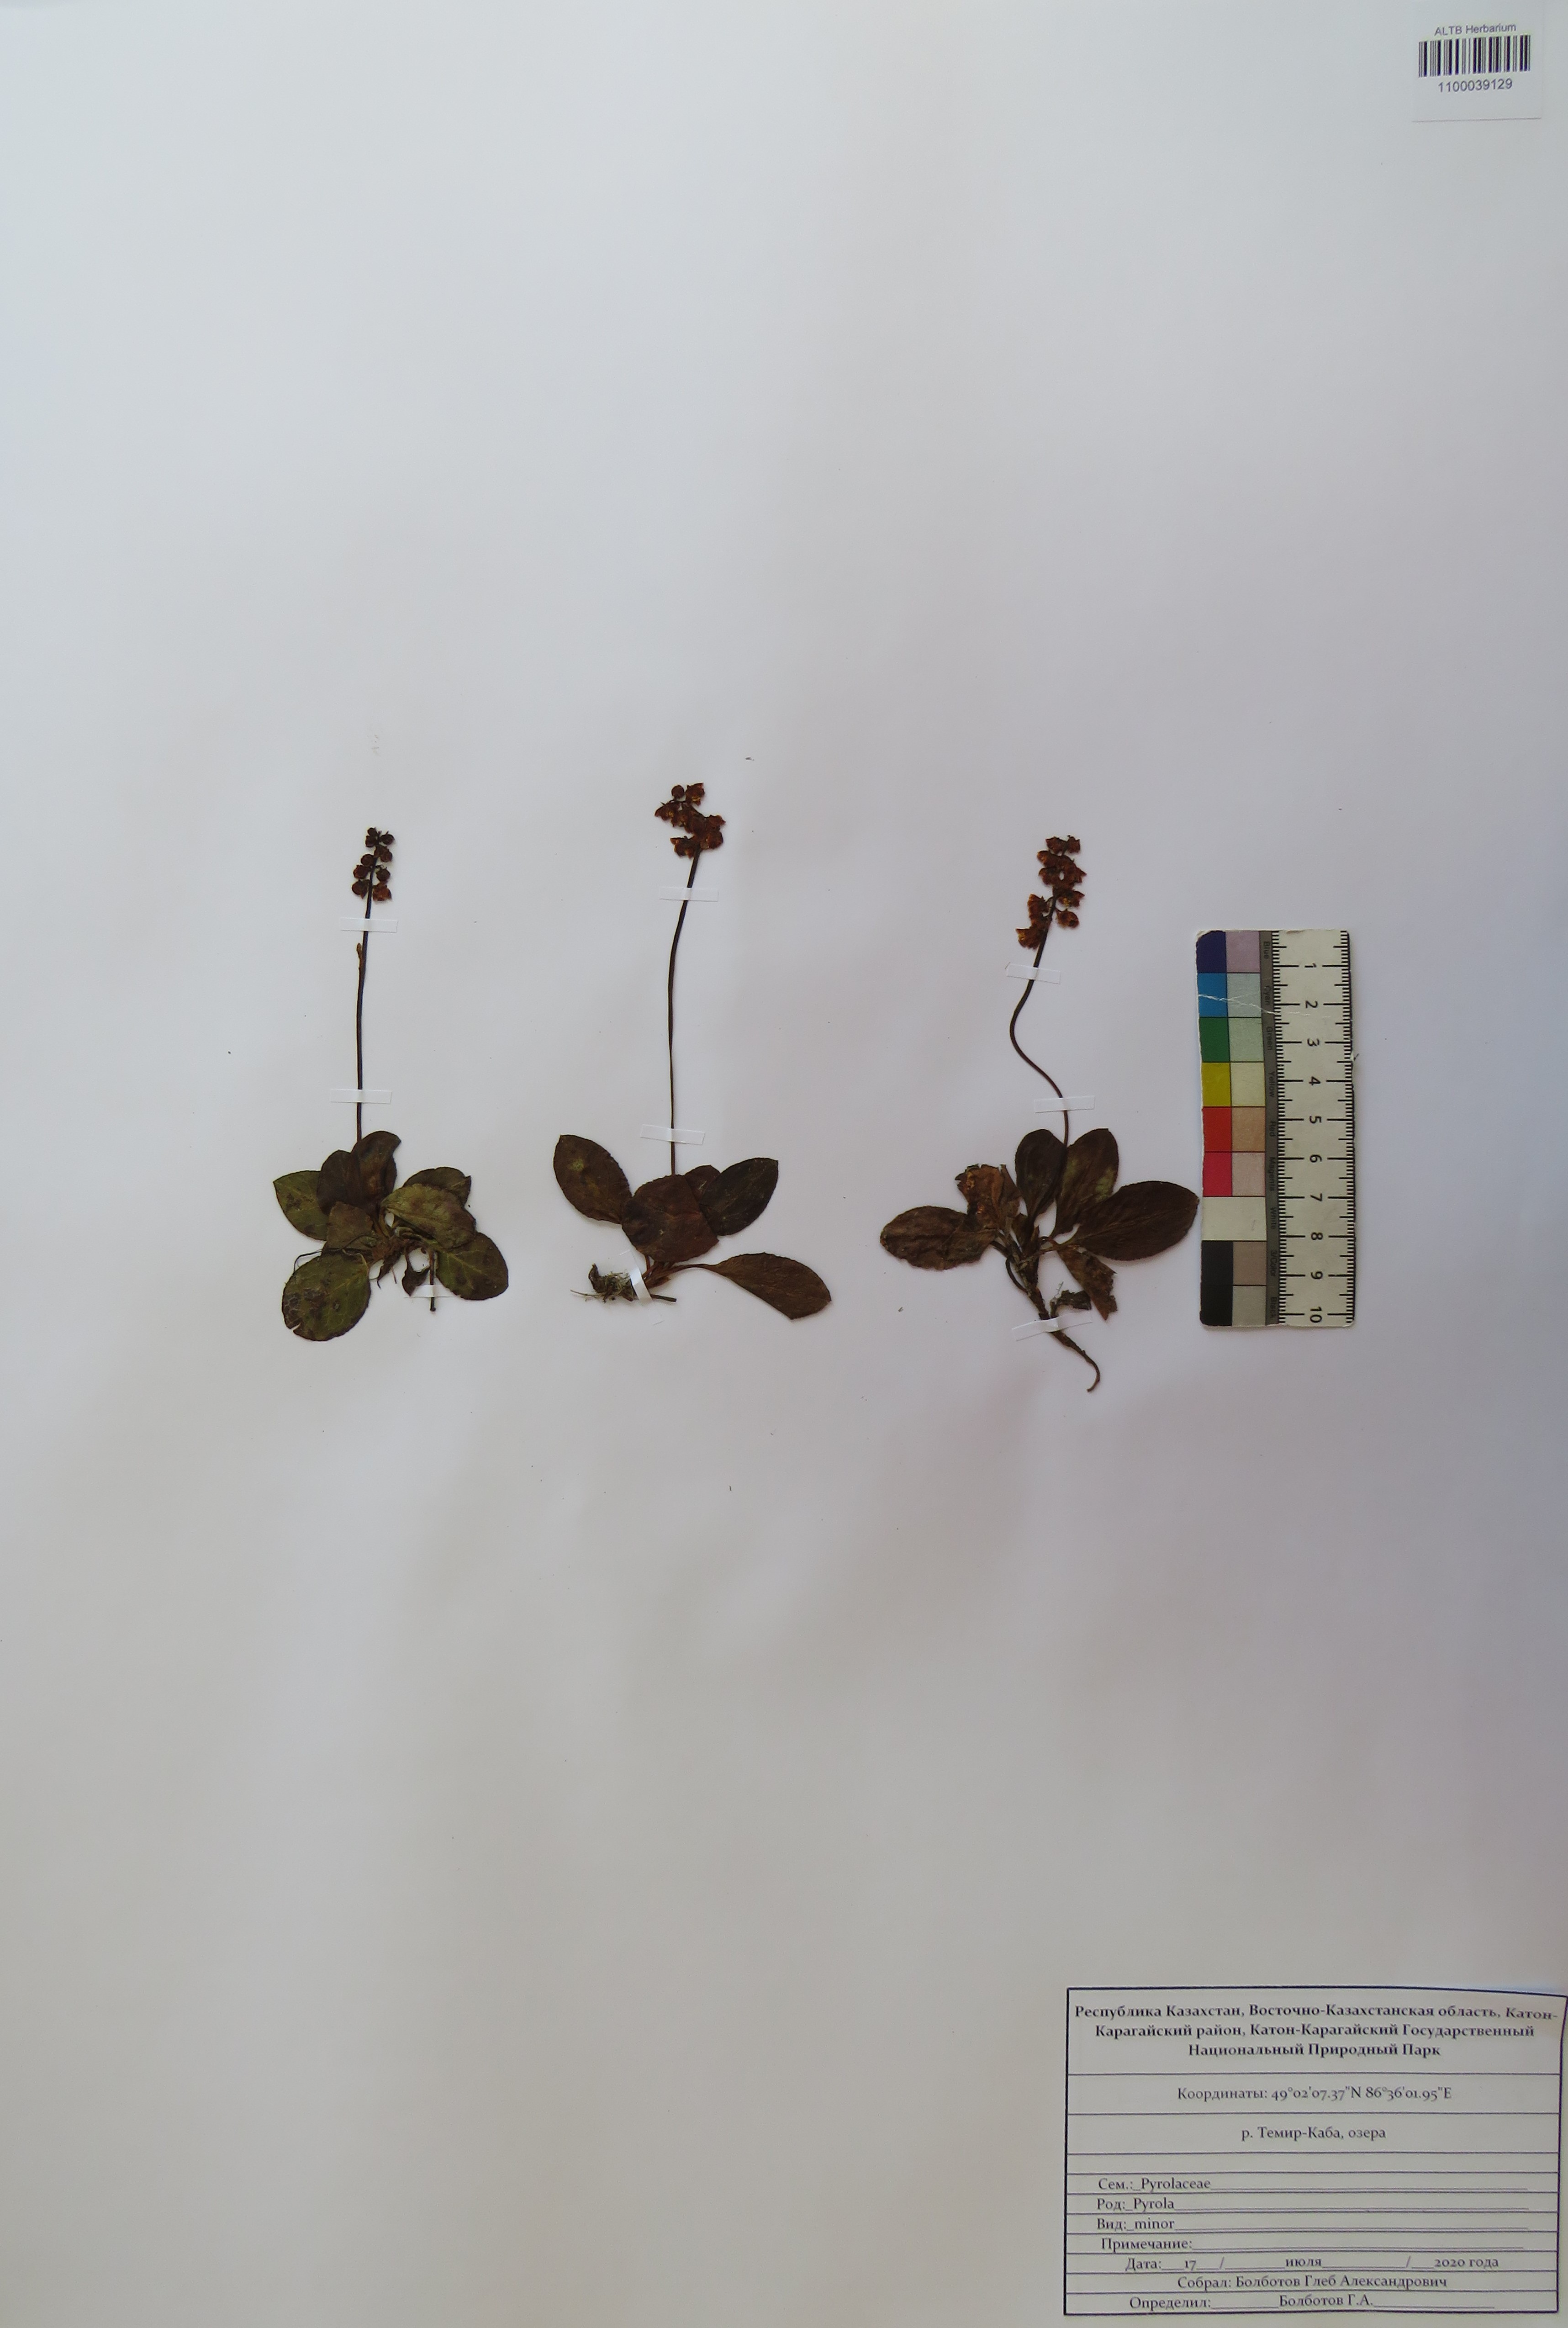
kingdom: Plantae
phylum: Tracheophyta
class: Magnoliopsida
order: Ericales
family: Ericaceae
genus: Pyrola
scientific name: Pyrola minor
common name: Common wintergreen
